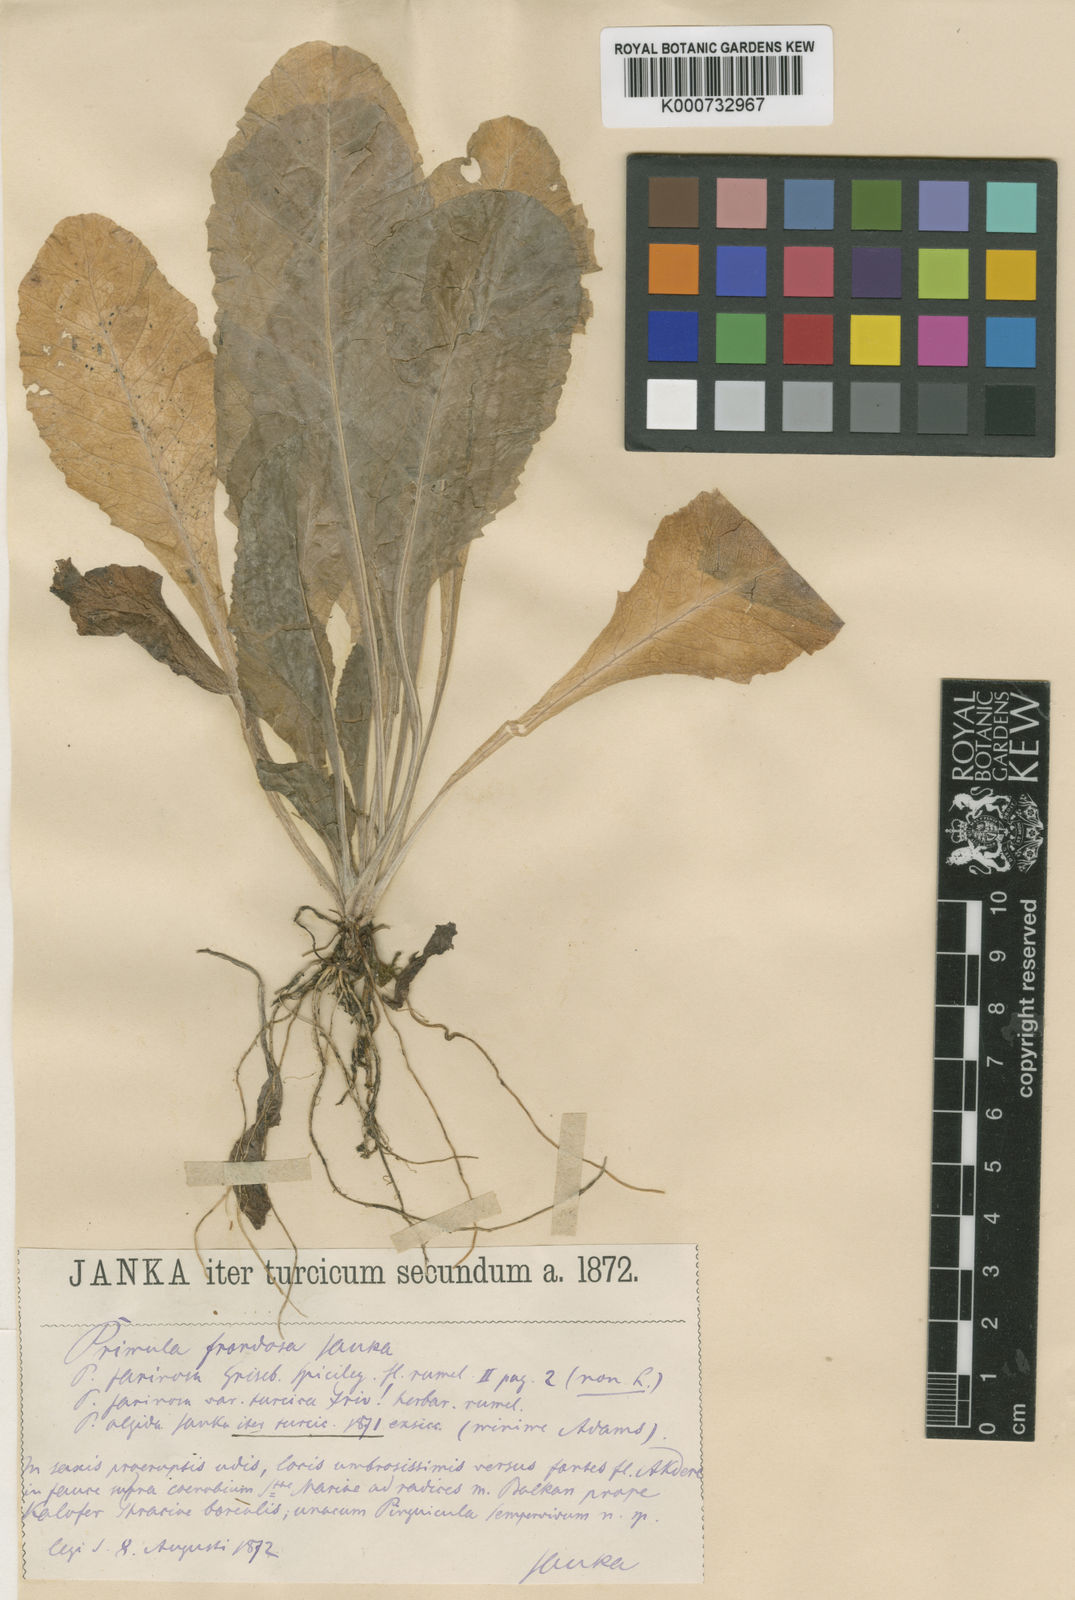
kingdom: Plantae
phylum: Tracheophyta
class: Magnoliopsida
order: Ericales
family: Primulaceae
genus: Primula
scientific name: Primula frondosa
